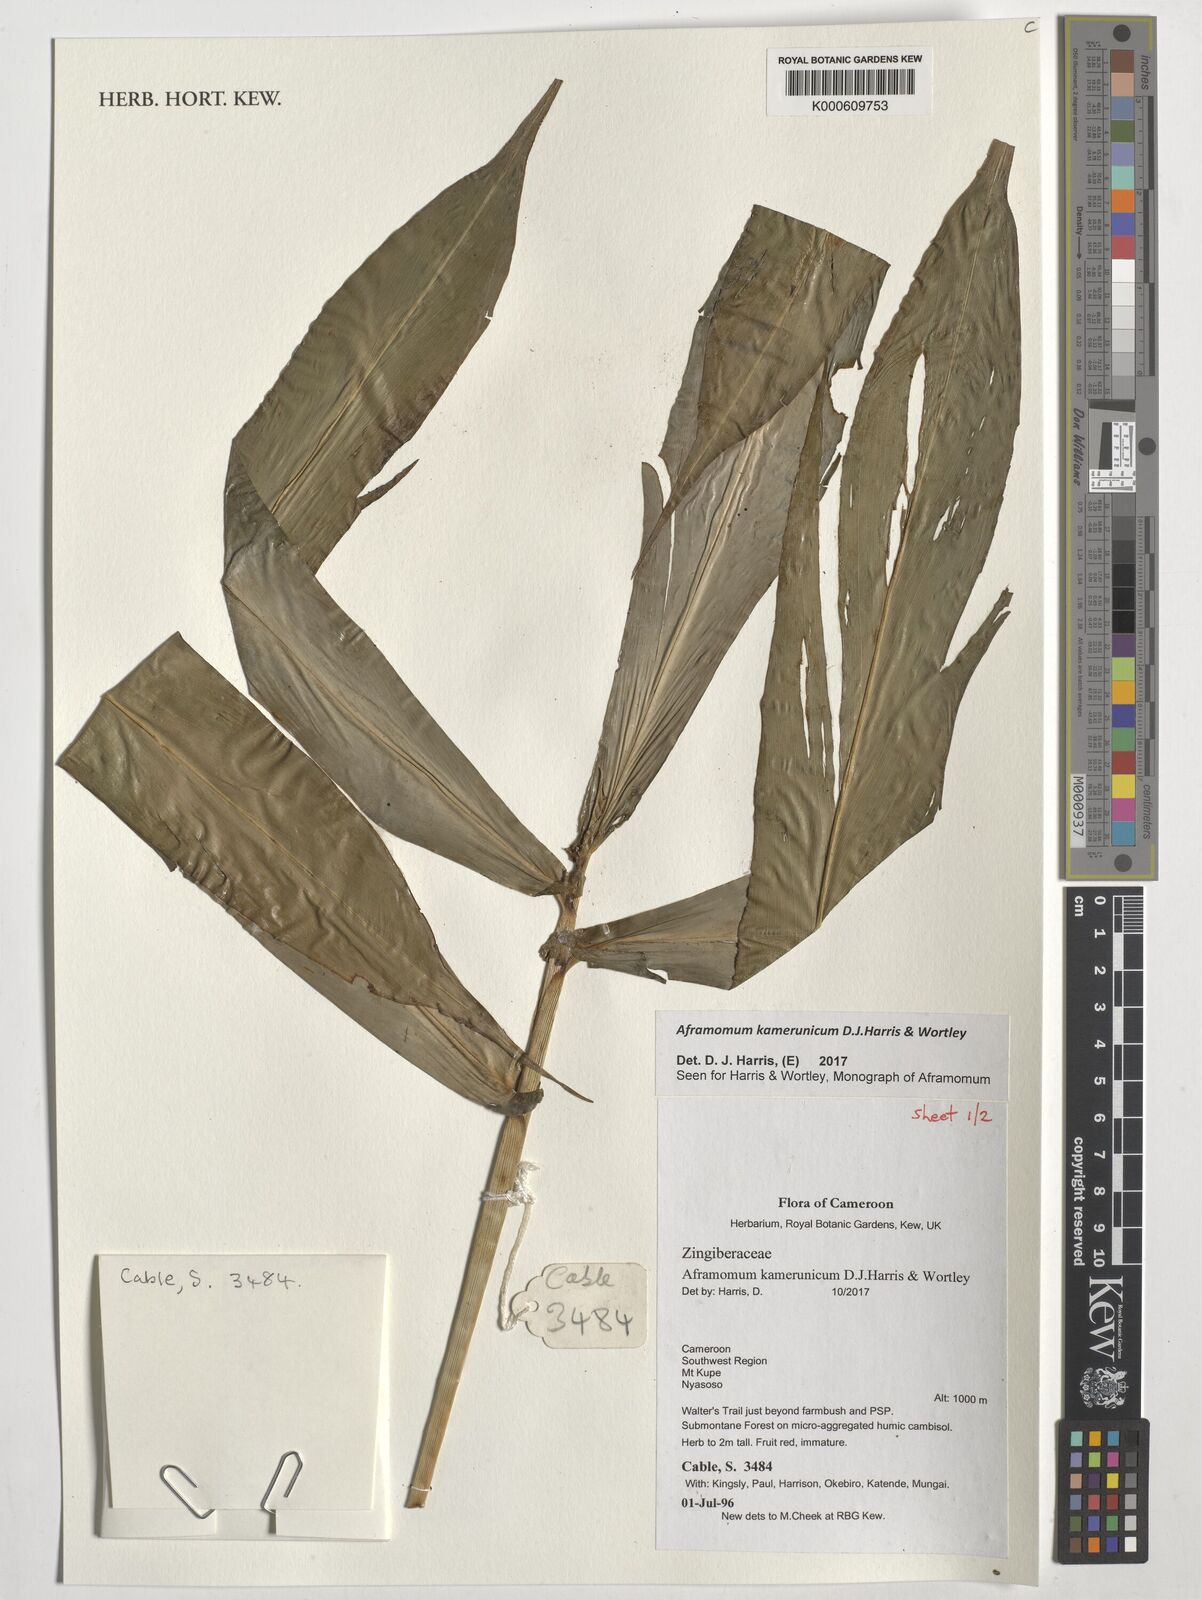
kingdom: Plantae
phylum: Tracheophyta
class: Liliopsida
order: Zingiberales
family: Zingiberaceae
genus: Aframomum
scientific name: Aframomum kamerunicum
